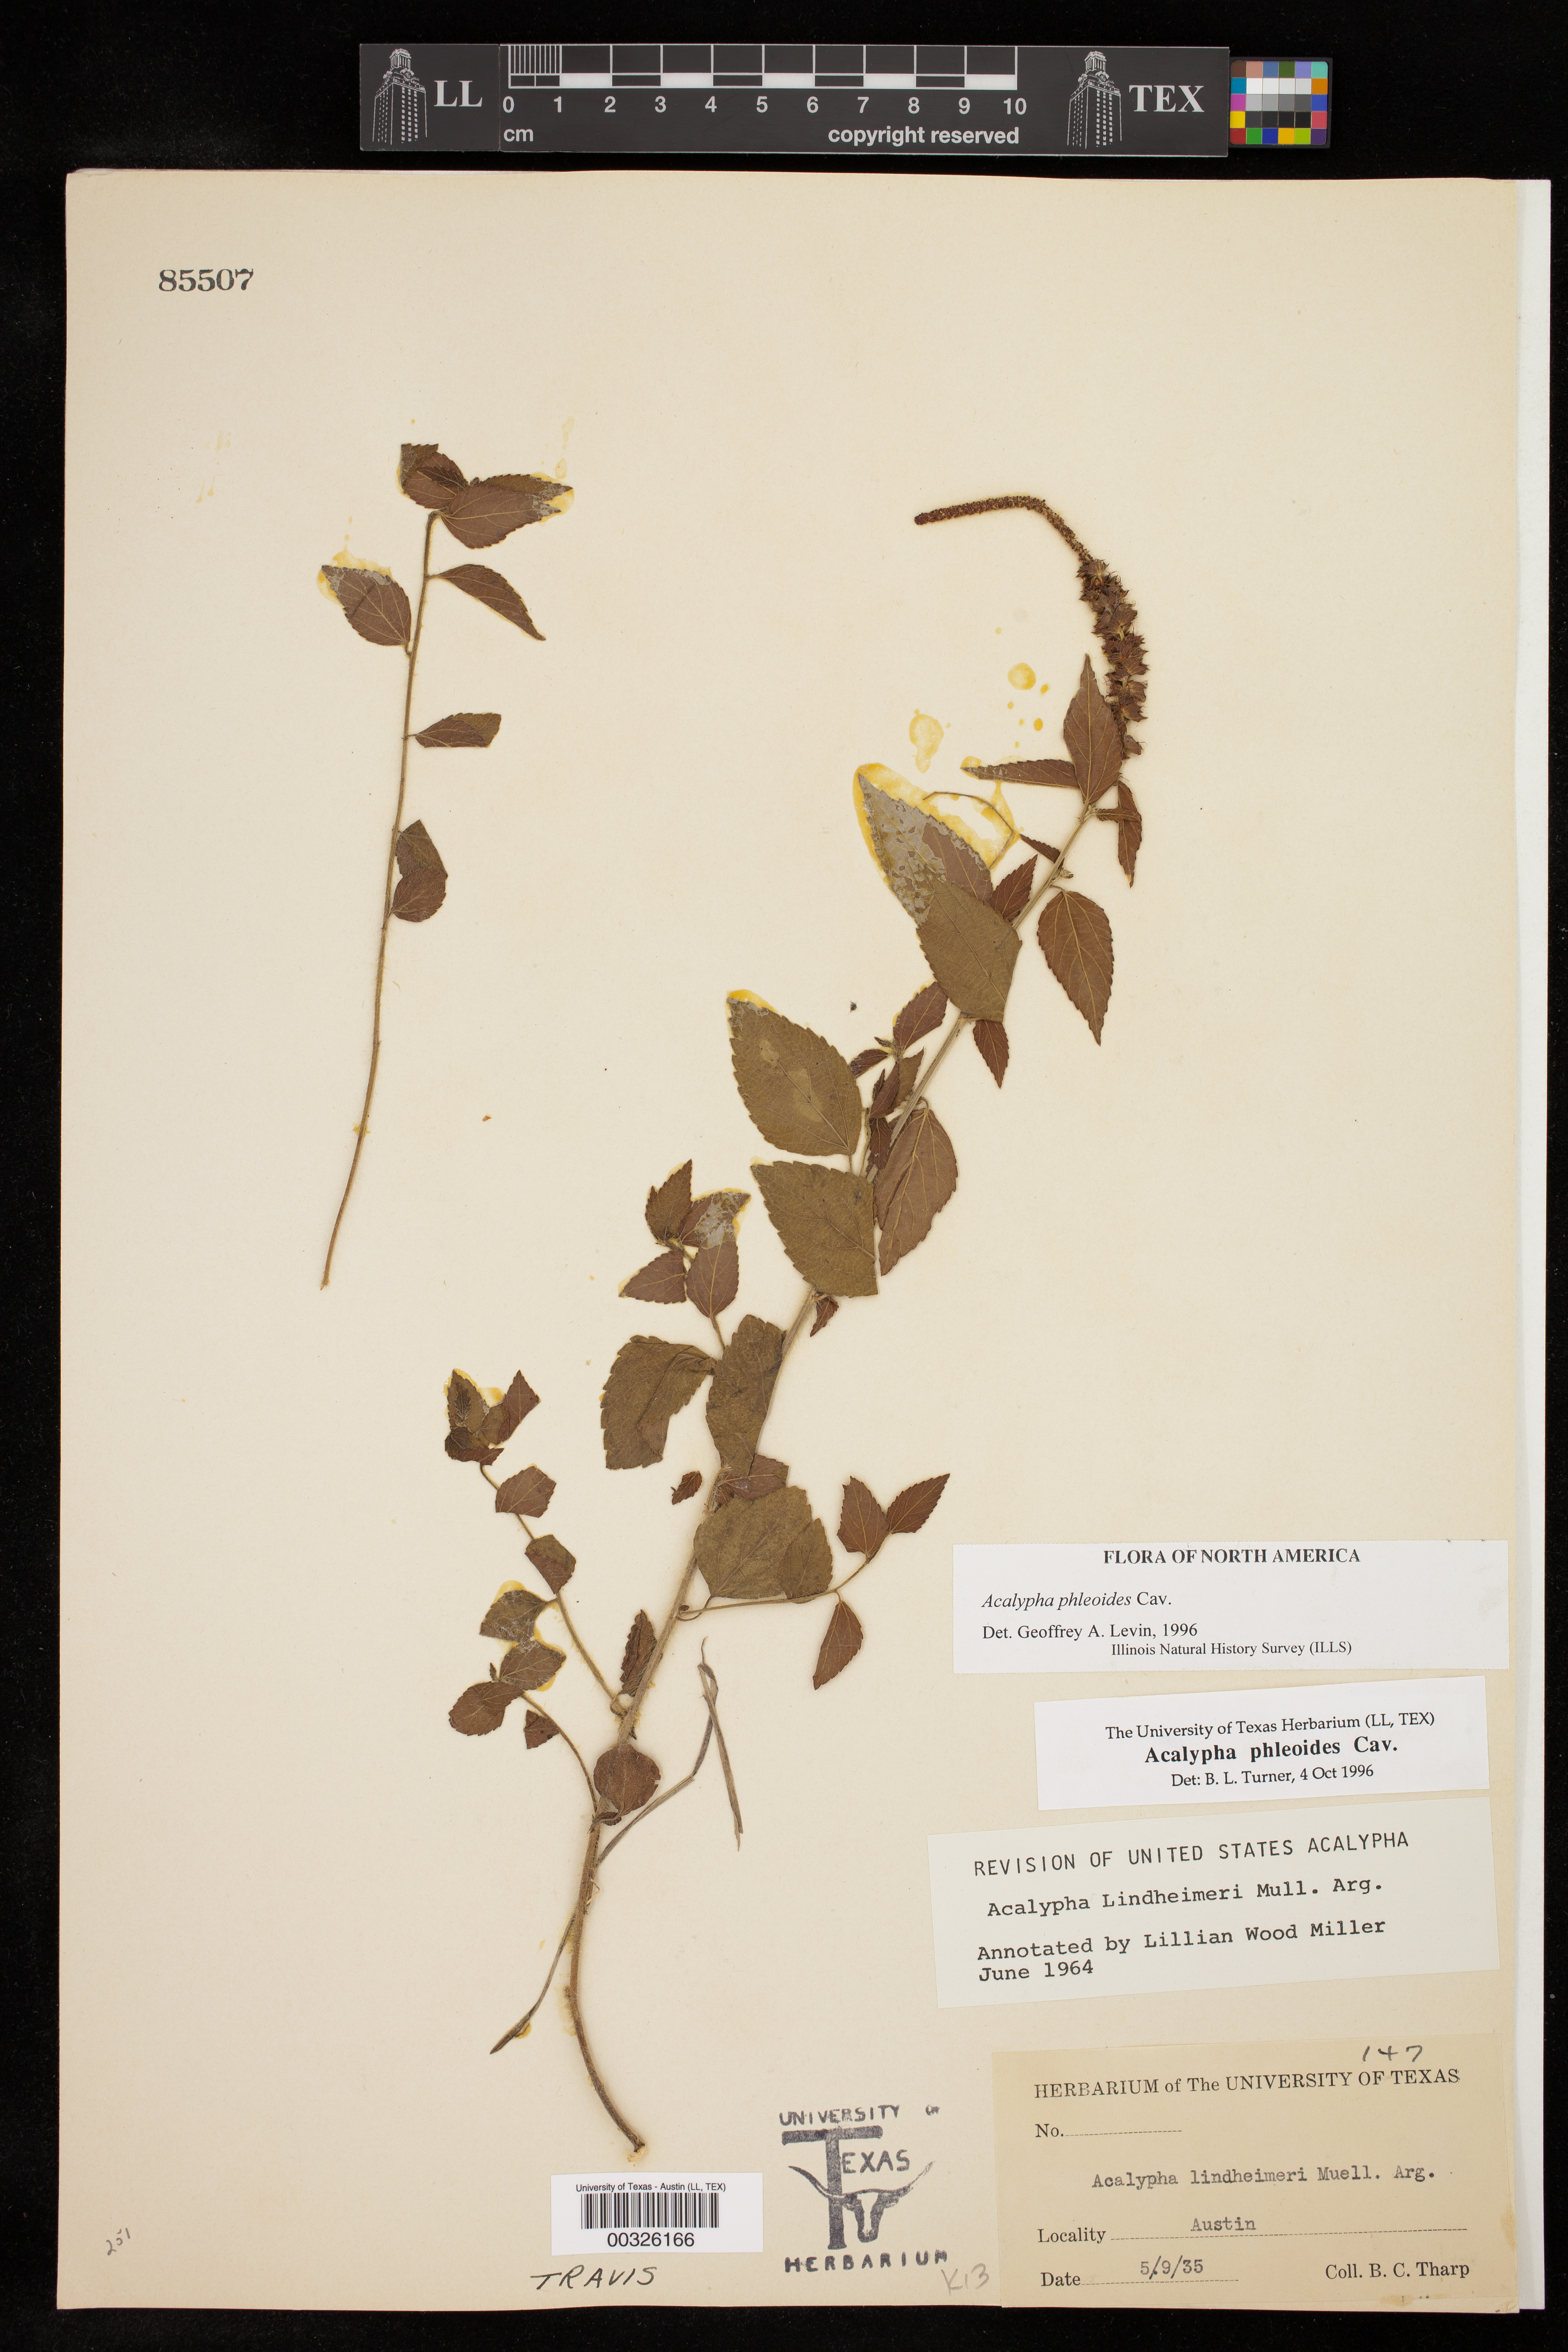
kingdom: Plantae
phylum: Tracheophyta
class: Magnoliopsida
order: Malpighiales
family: Euphorbiaceae
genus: Acalypha
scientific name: Acalypha phleoides
